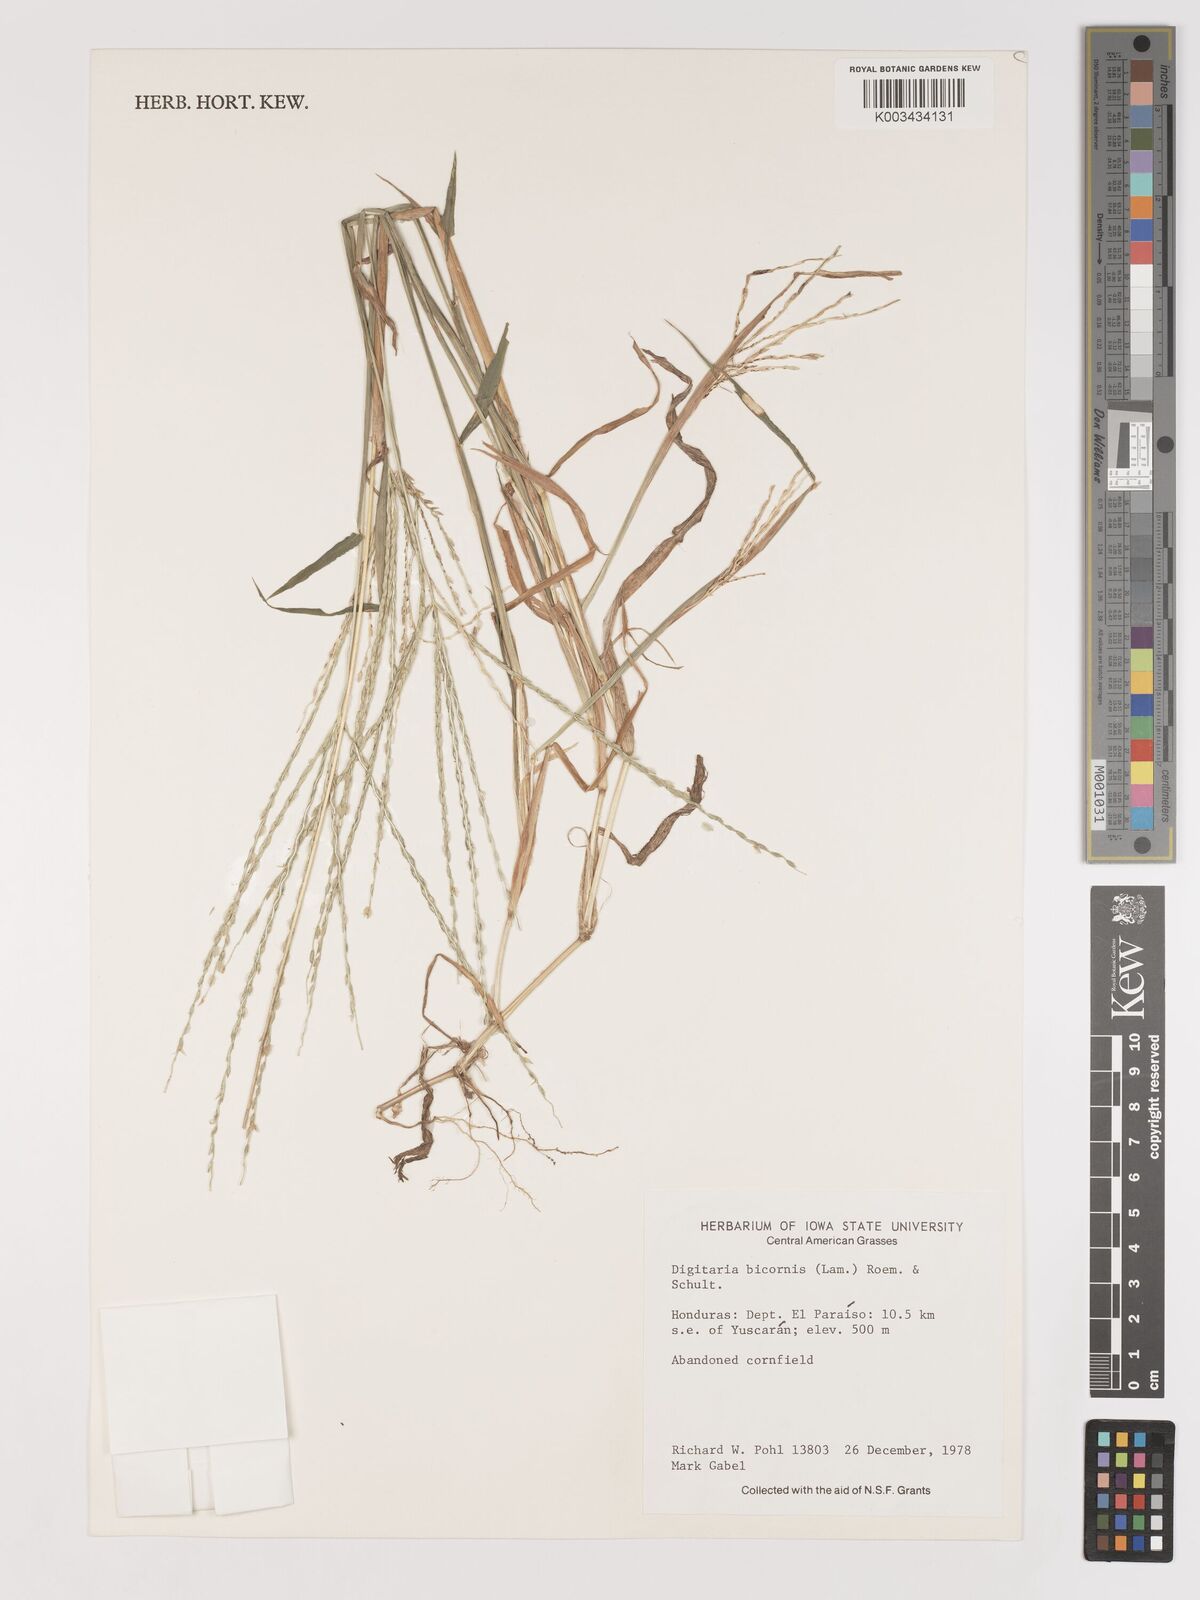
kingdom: Plantae
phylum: Tracheophyta
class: Liliopsida
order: Poales
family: Poaceae
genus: Digitaria
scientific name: Digitaria ciliaris
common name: Tropical finger-grass
